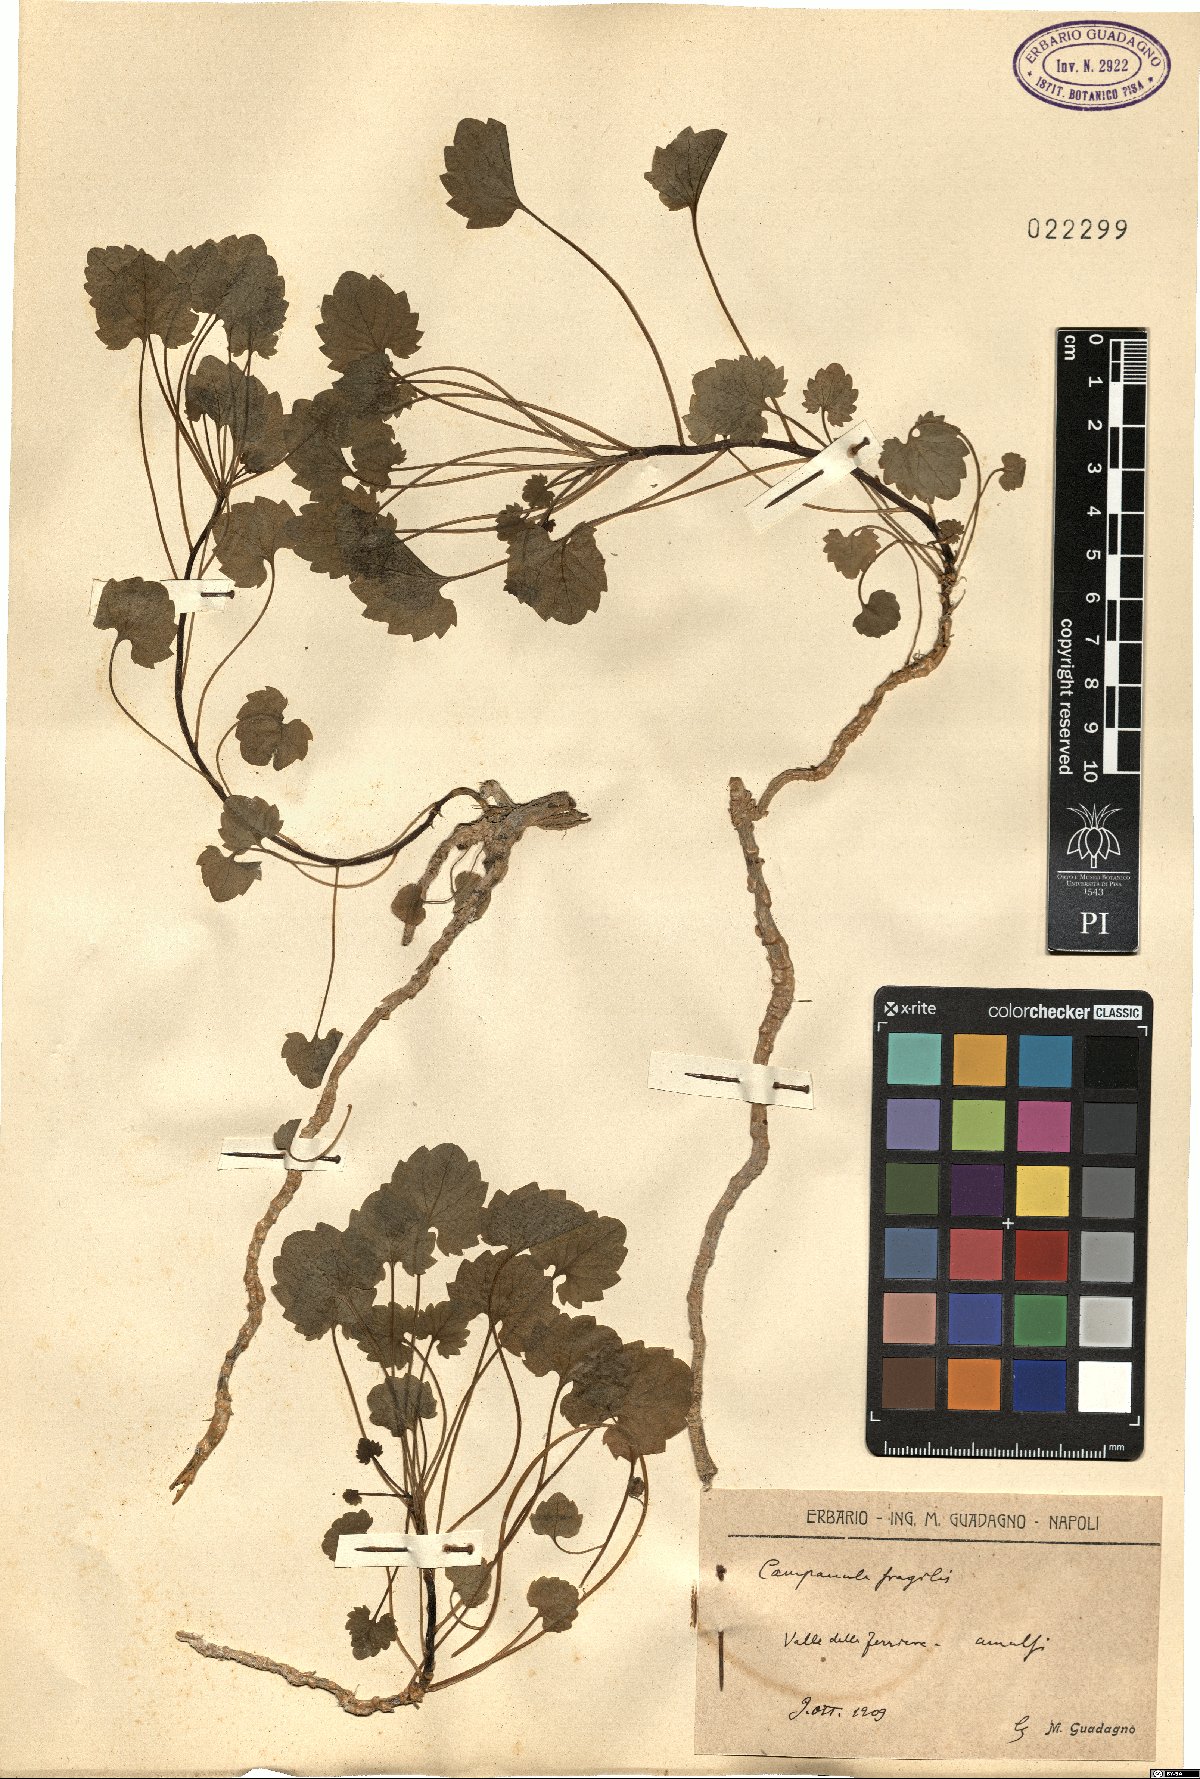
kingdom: Plantae
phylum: Tracheophyta
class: Magnoliopsida
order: Asterales
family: Campanulaceae
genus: Campanula
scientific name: Campanula fragilis
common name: Italian bellflower
